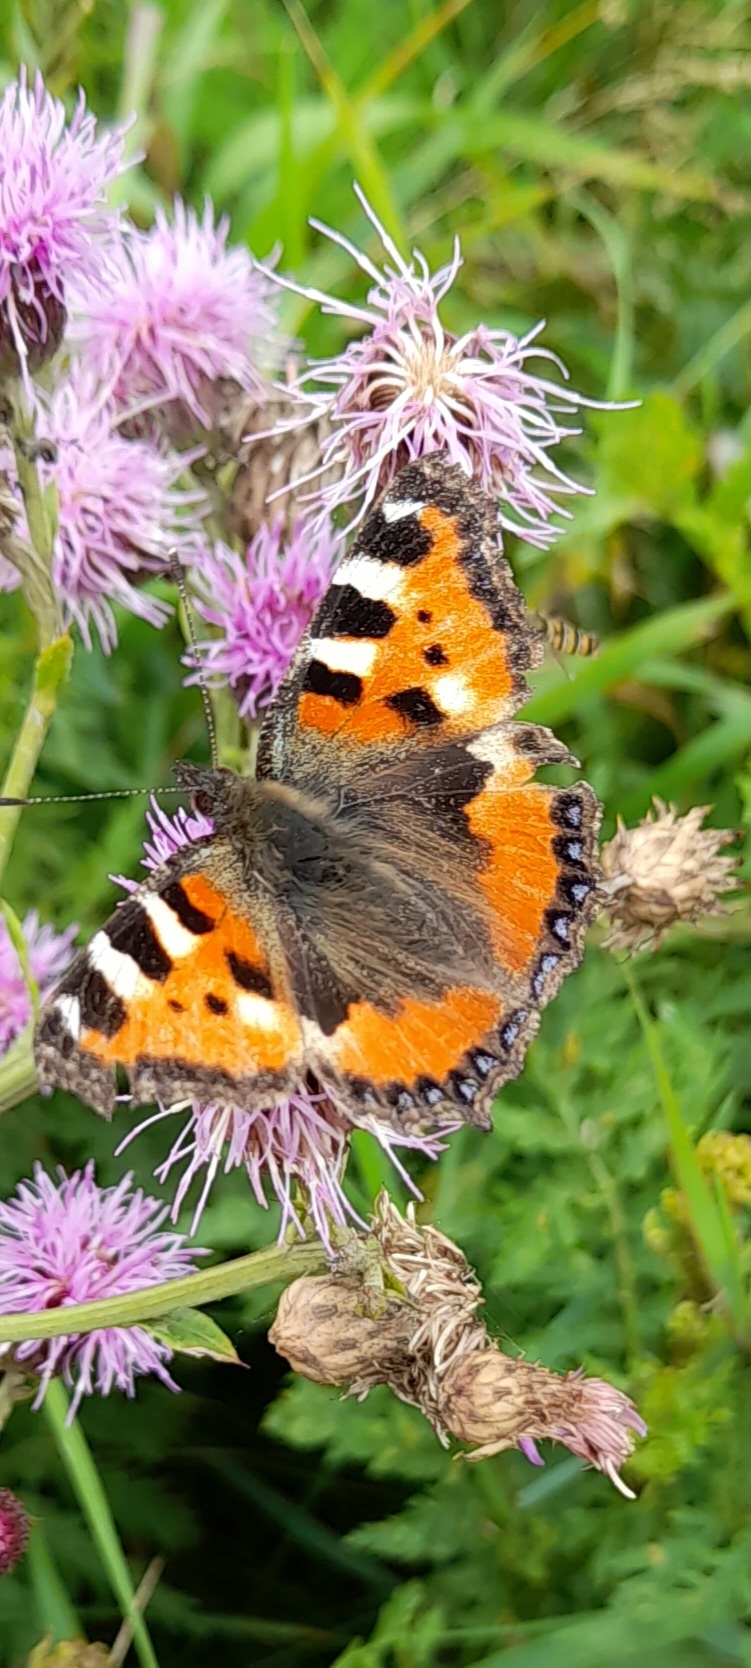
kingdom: Animalia
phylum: Arthropoda
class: Insecta
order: Lepidoptera
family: Nymphalidae
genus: Aglais
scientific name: Aglais urticae
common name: Nældens takvinge
